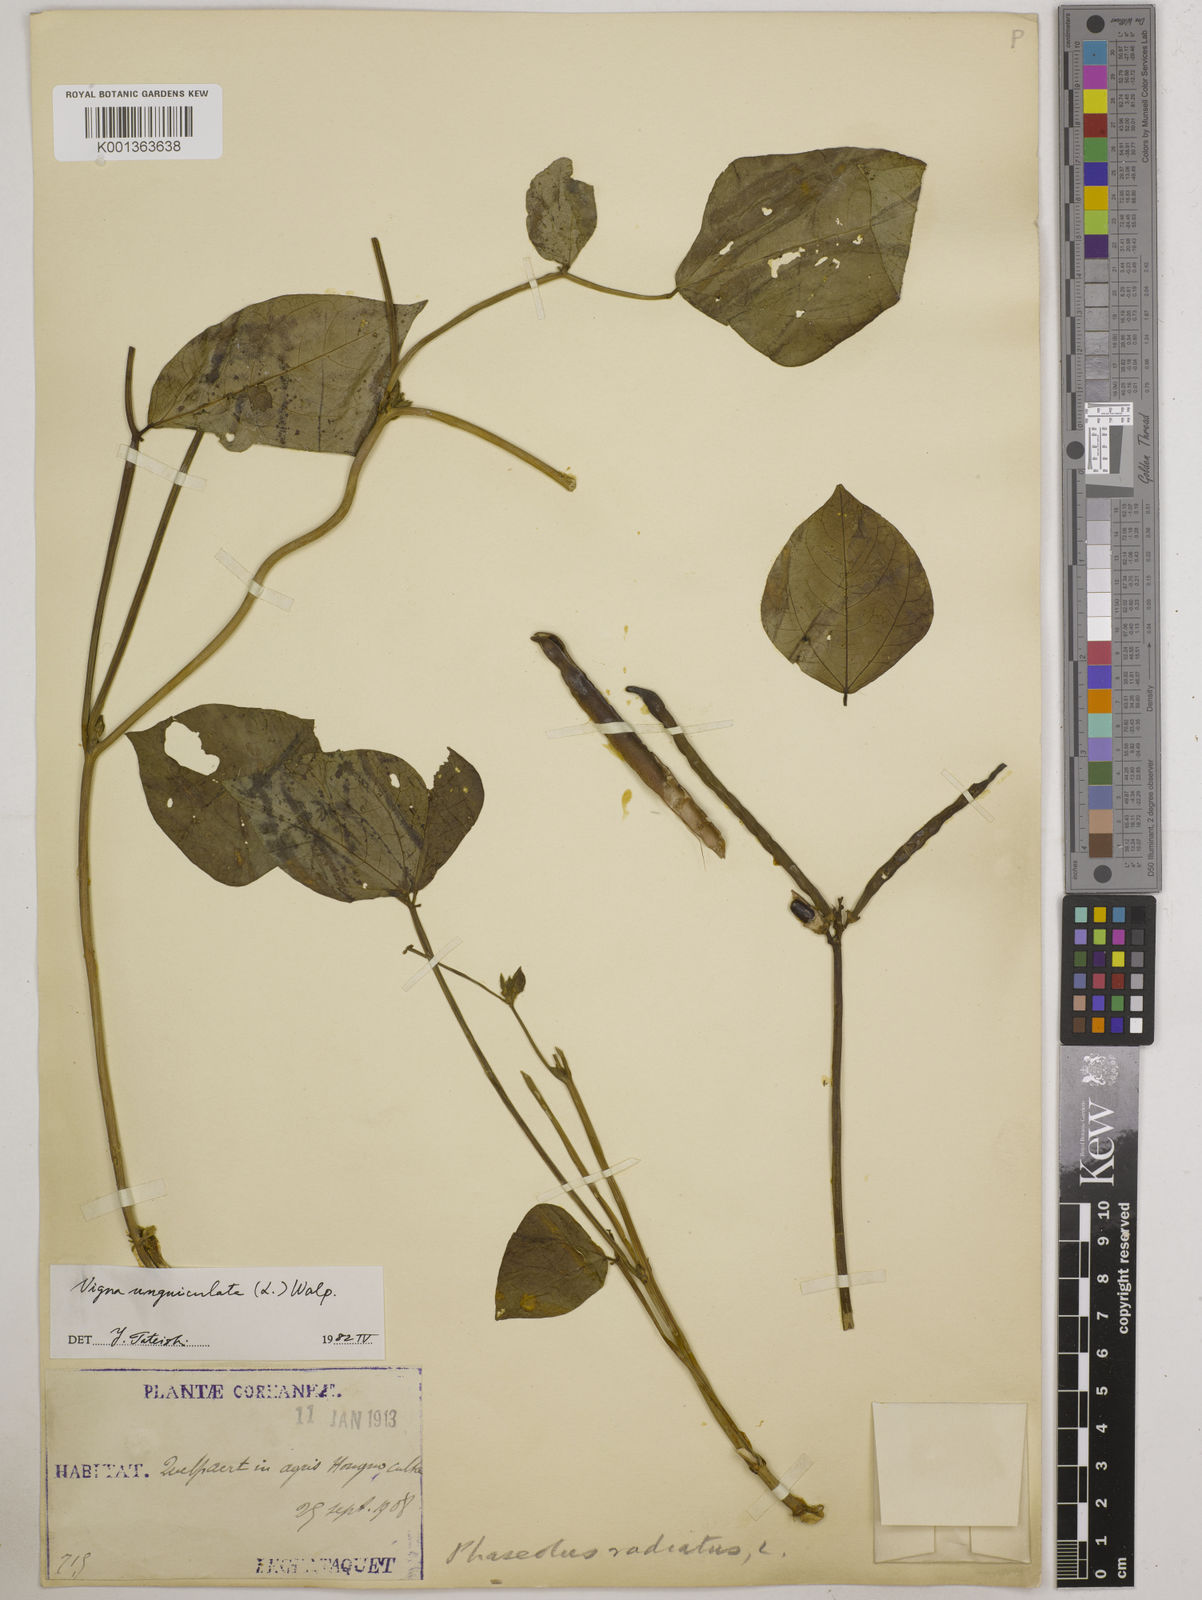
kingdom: Plantae
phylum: Tracheophyta
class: Magnoliopsida
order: Fabales
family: Fabaceae
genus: Vigna
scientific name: Vigna unguiculata
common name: Cowpea
